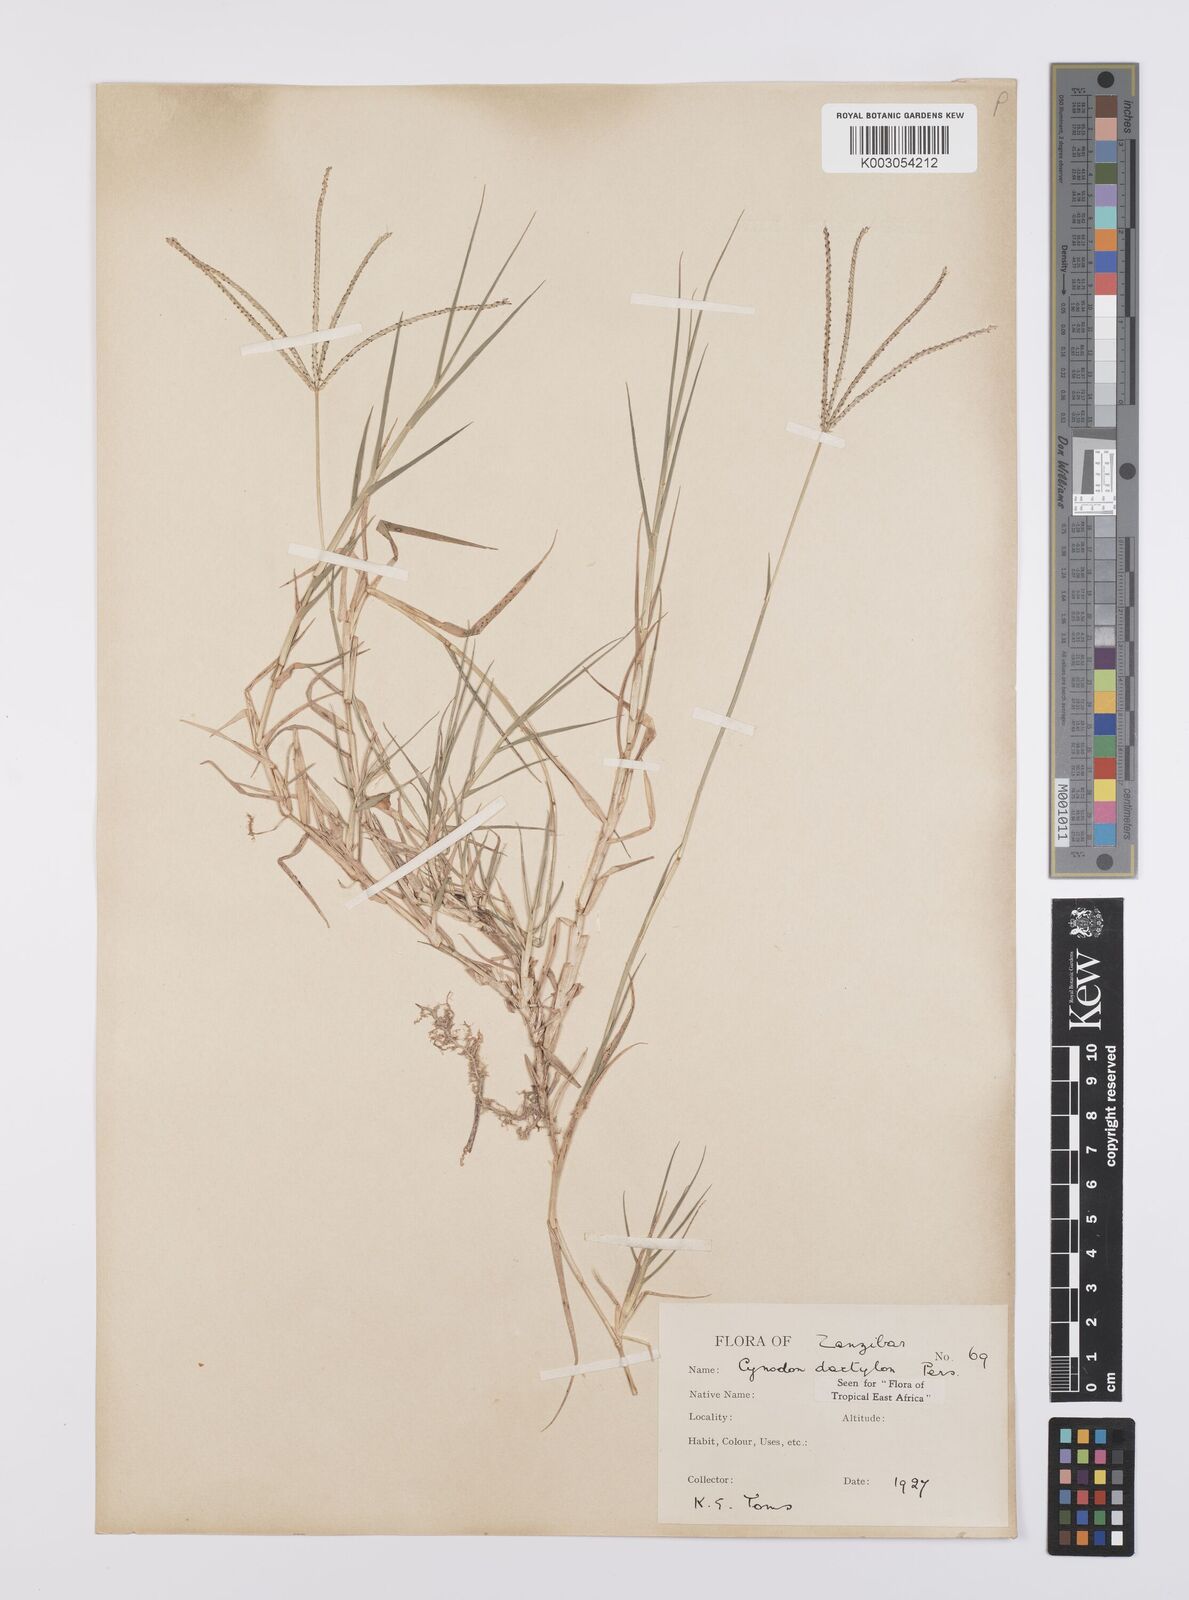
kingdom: Plantae
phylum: Tracheophyta
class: Liliopsida
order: Poales
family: Poaceae
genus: Cynodon
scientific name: Cynodon dactylon
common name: Bermuda grass
